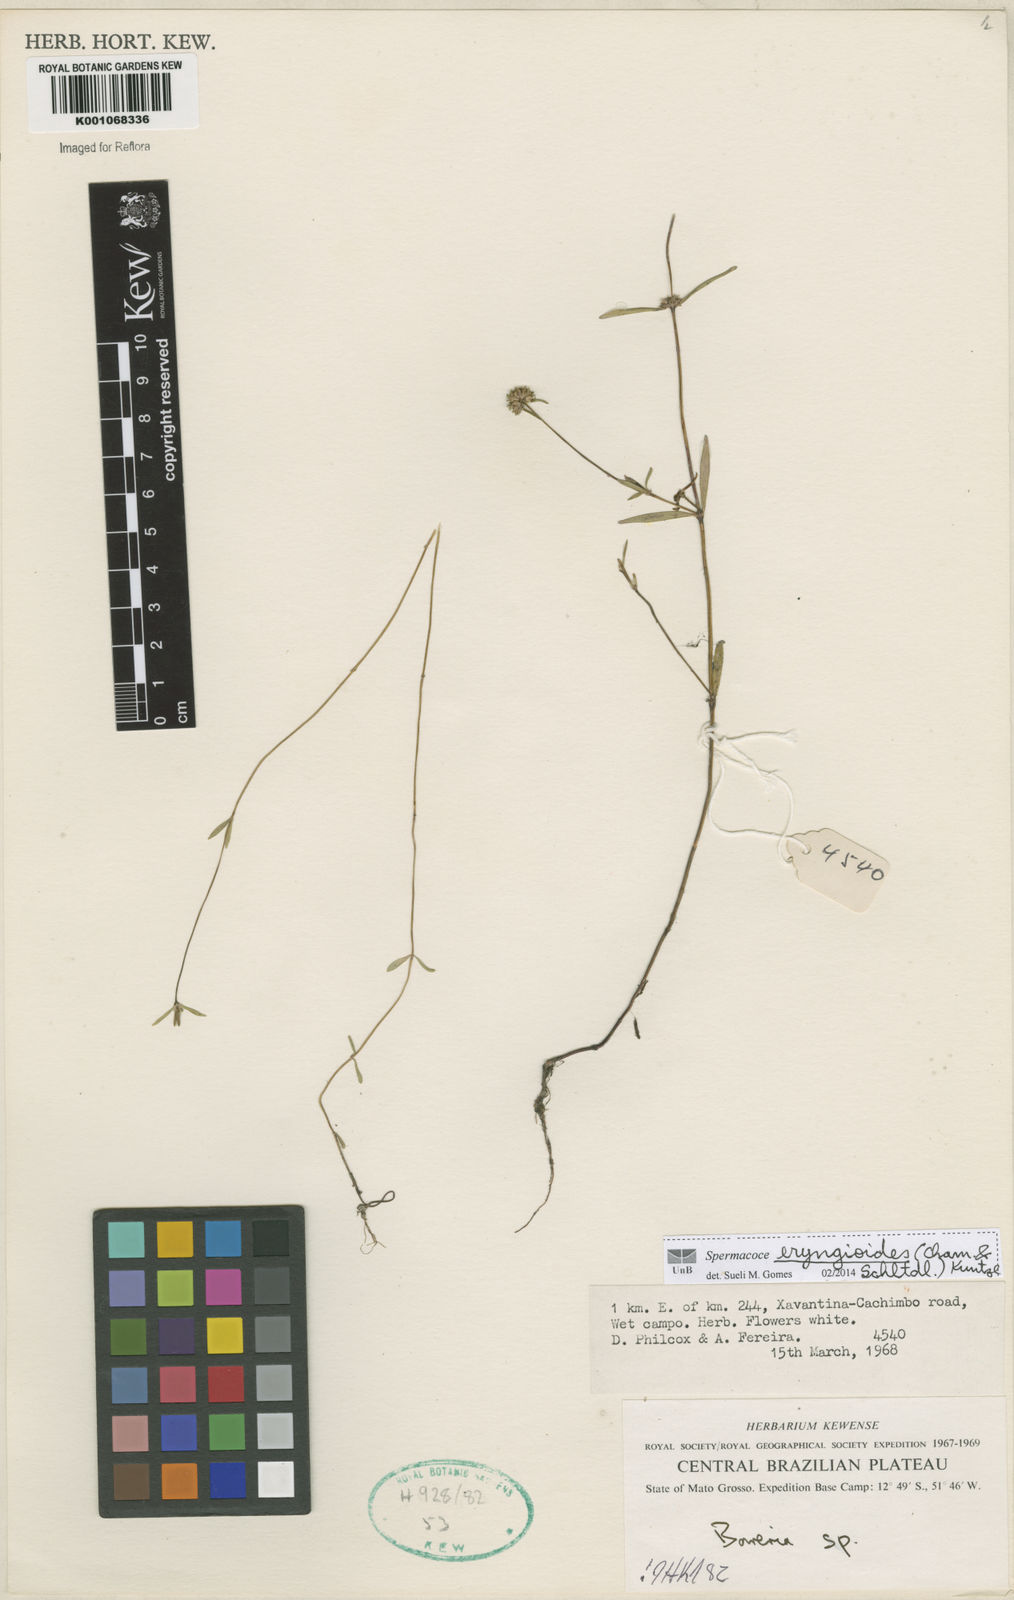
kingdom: Plantae
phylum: Tracheophyta
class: Magnoliopsida
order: Gentianales
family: Rubiaceae
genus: Spermacoce
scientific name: Spermacoce eryngioides
